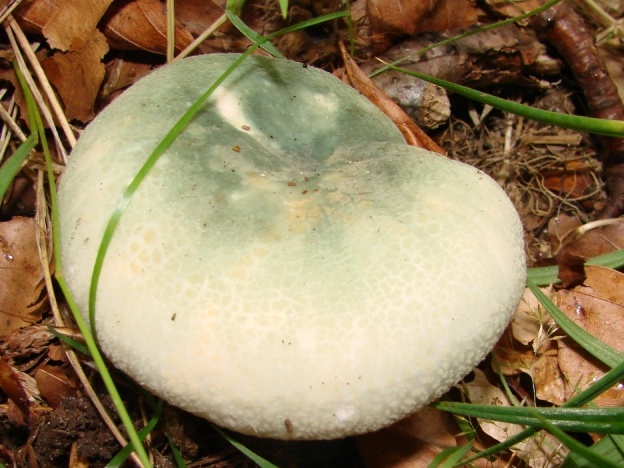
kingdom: Fungi
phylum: Basidiomycota
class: Agaricomycetes
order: Russulales
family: Russulaceae
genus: Russula
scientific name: Russula virescens
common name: spanskgrøn skørhat
